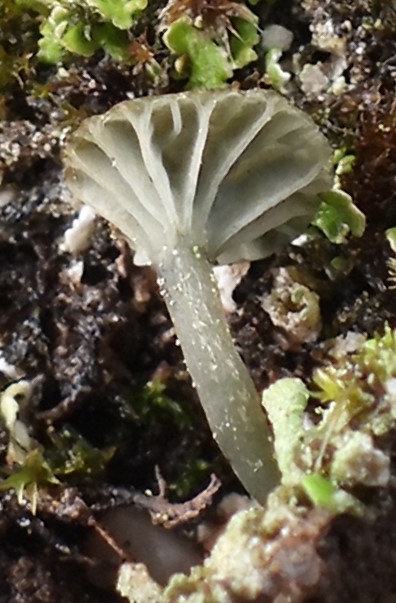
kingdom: Fungi
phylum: Basidiomycota
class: Agaricomycetes
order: Agaricales
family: Hygrophoraceae
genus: Arrhenia
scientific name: Arrhenia chlorocyanea
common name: blågrøn fontænehat
